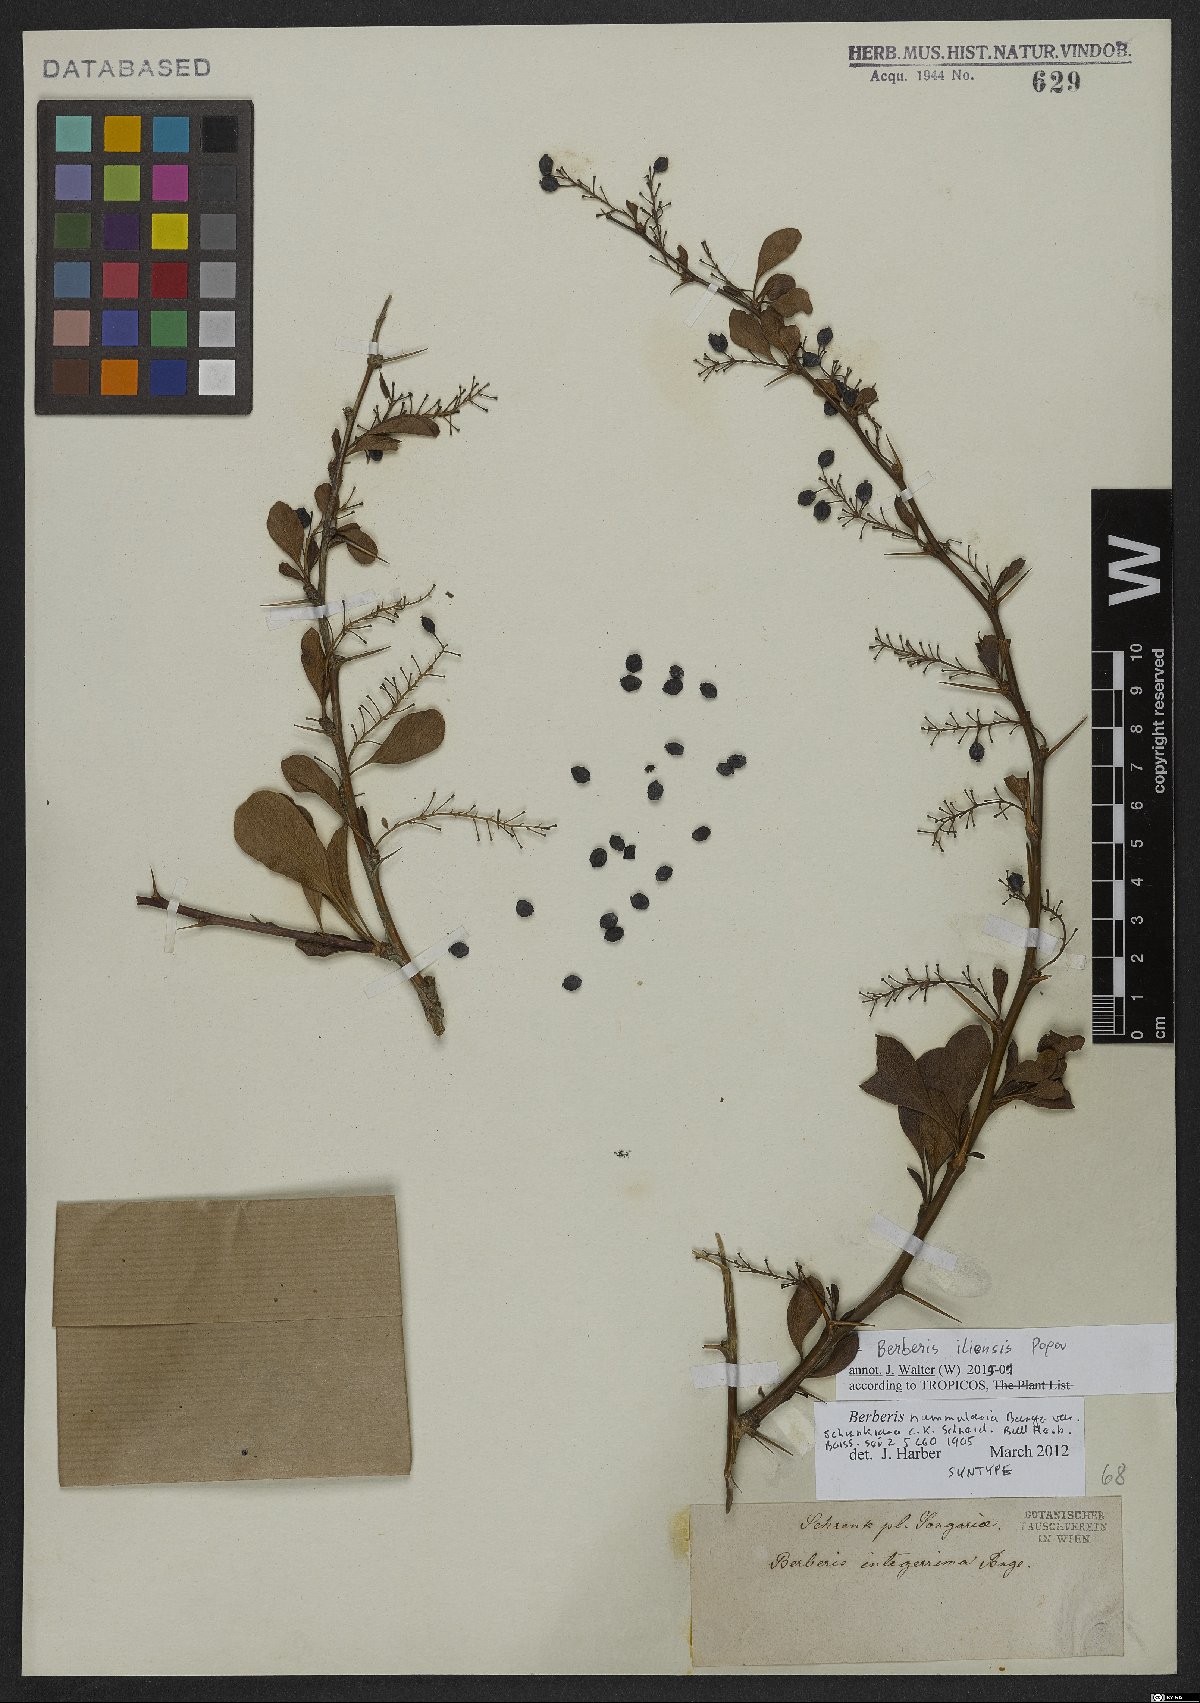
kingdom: Plantae
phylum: Tracheophyta
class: Magnoliopsida
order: Ranunculales
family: Berberidaceae
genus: Berberis
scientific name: Berberis integerrima
